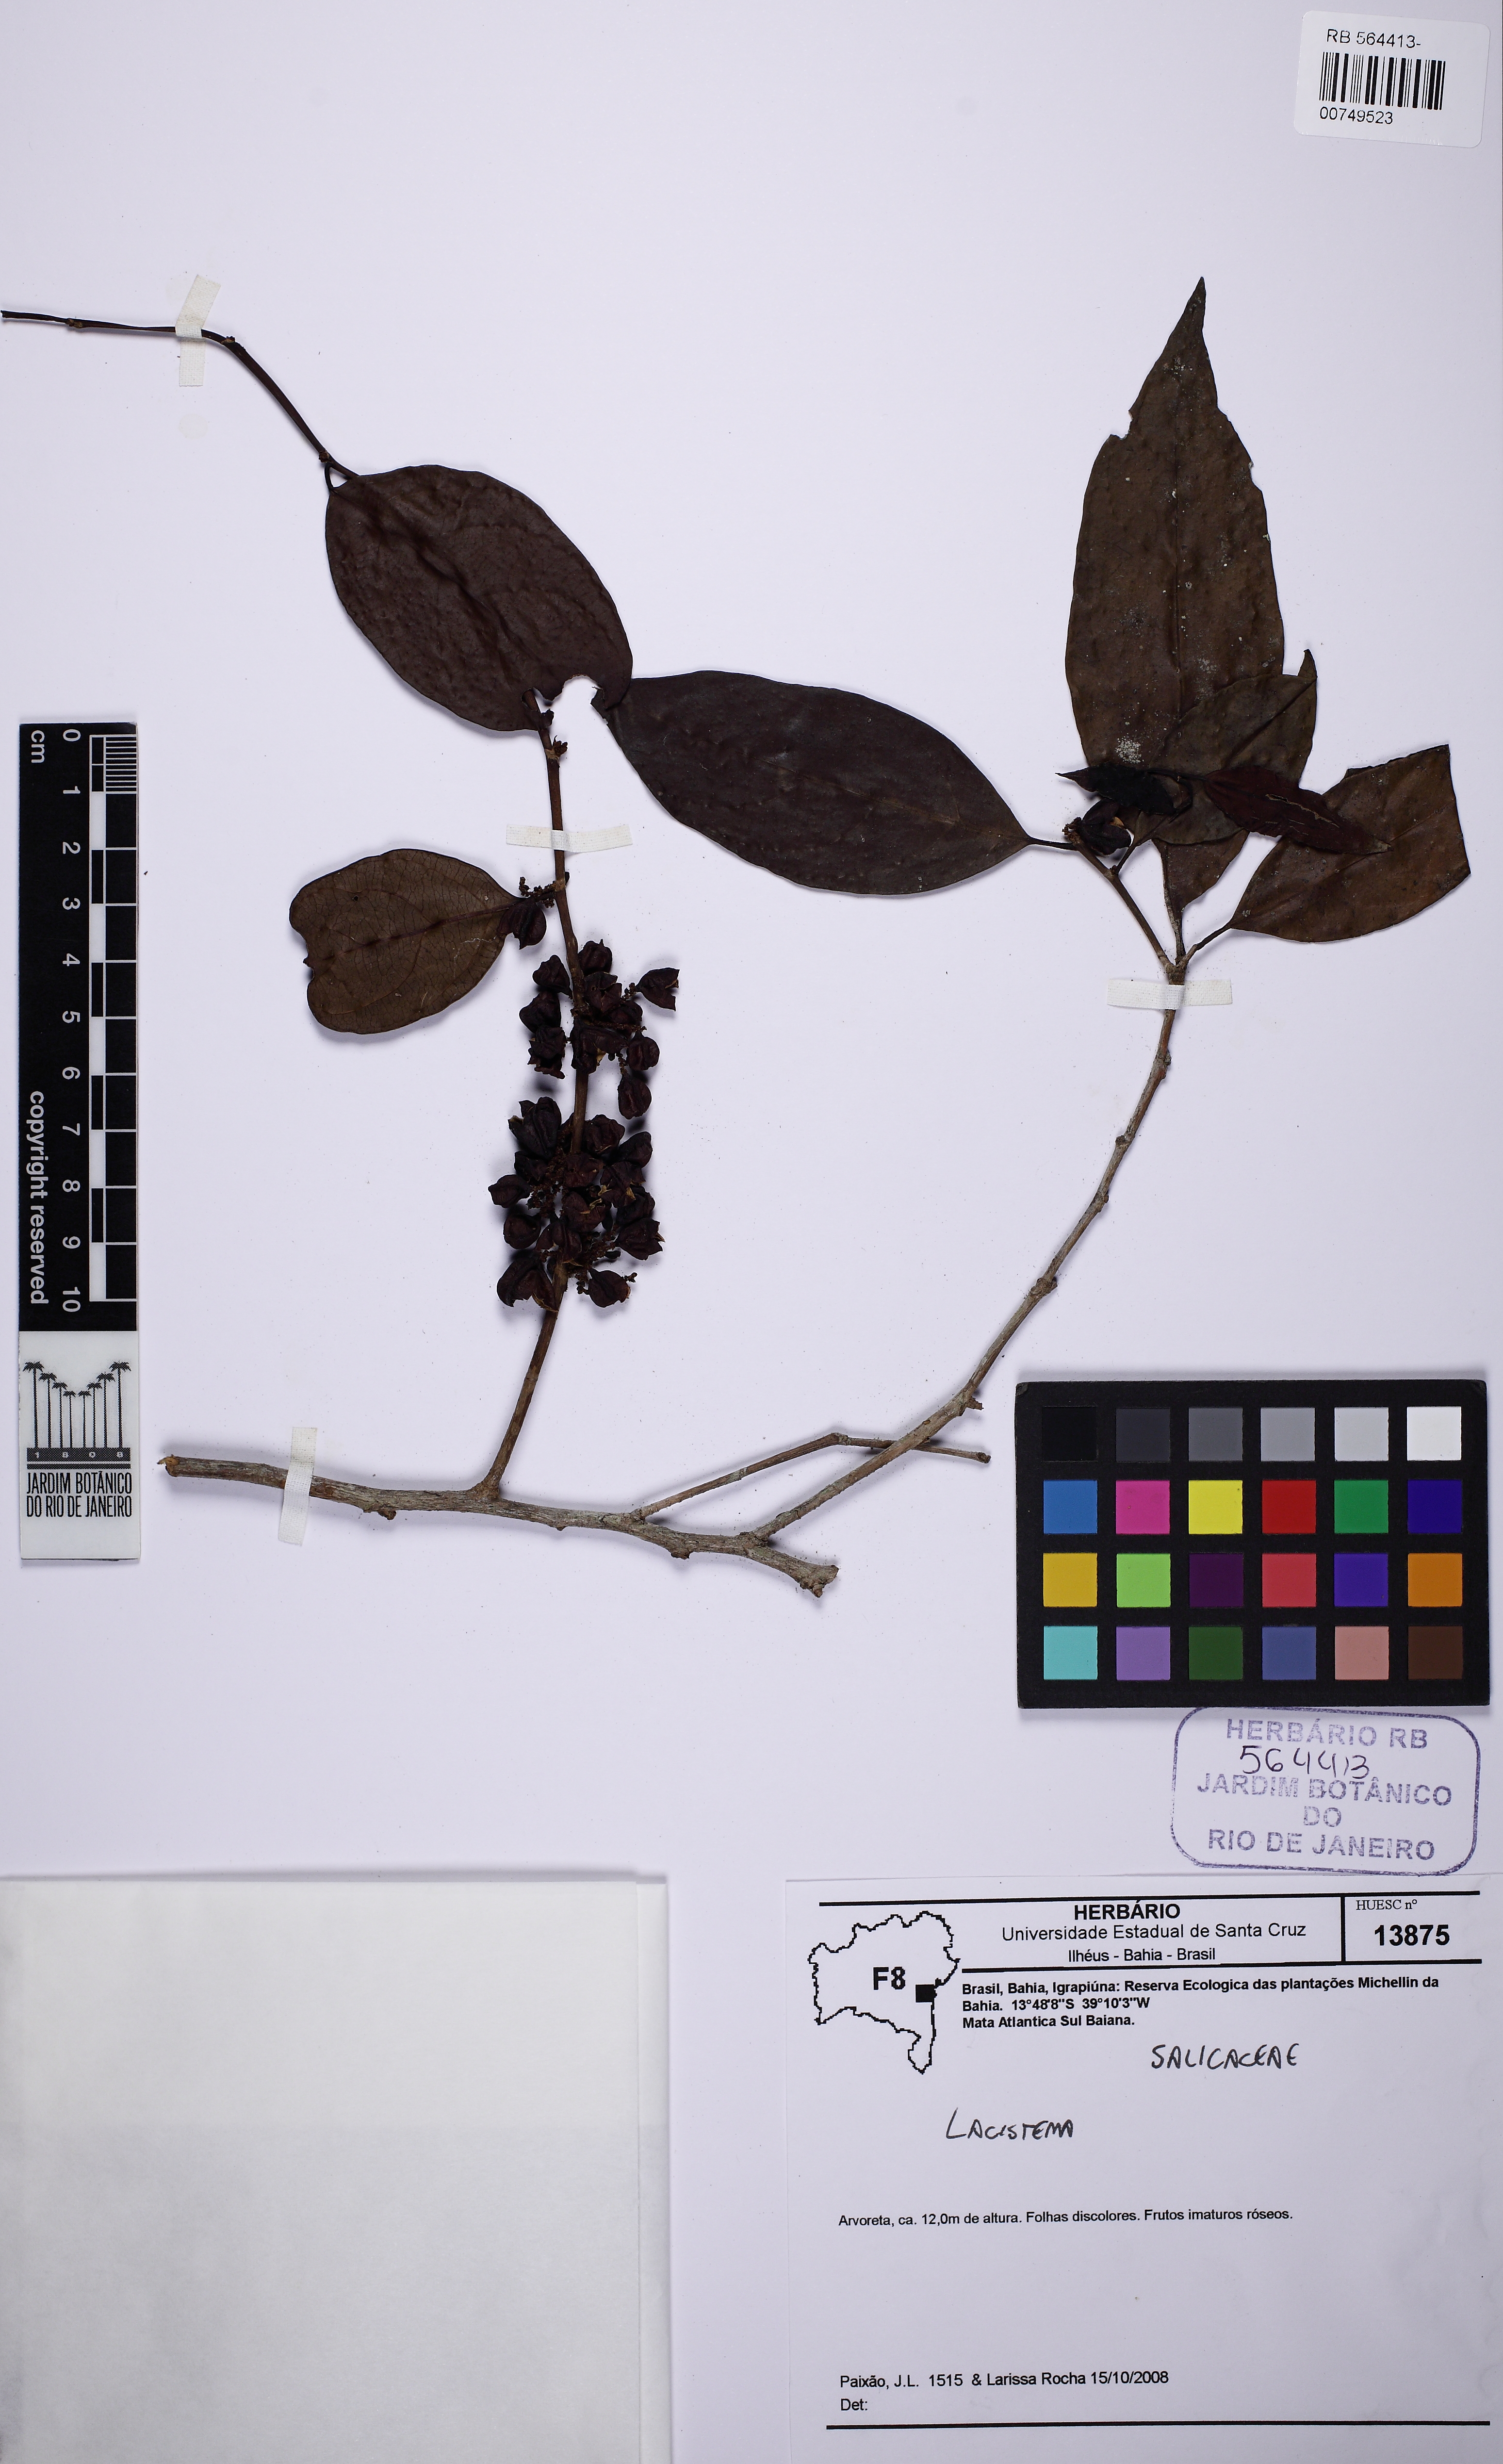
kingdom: Plantae
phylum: Tracheophyta
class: Magnoliopsida
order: Malpighiales
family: Lacistemataceae
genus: Lacistema
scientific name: Lacistema
